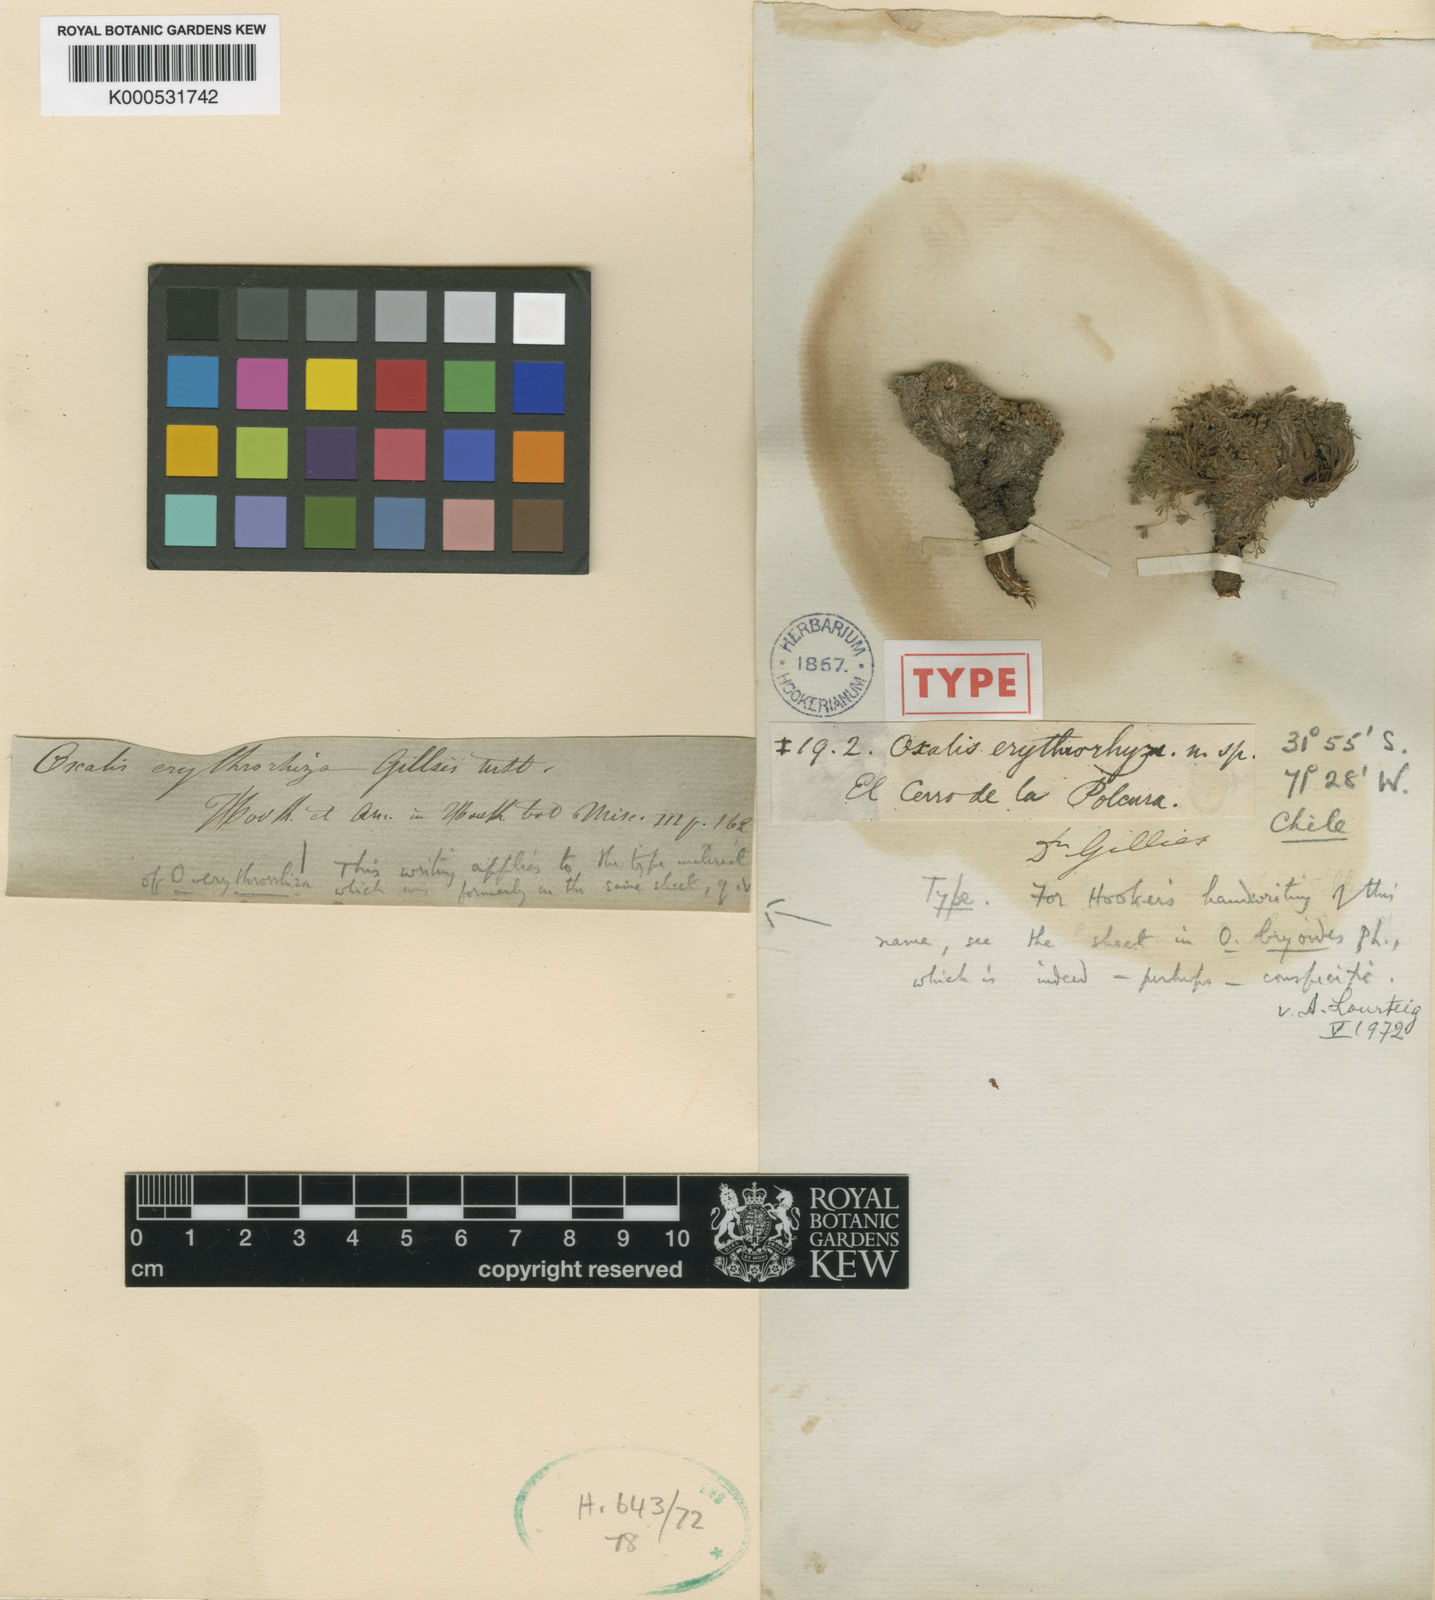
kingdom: Plantae
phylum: Tracheophyta
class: Magnoliopsida
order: Oxalidales
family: Oxalidaceae
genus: Oxalis
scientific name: Oxalis erythrorhiza
